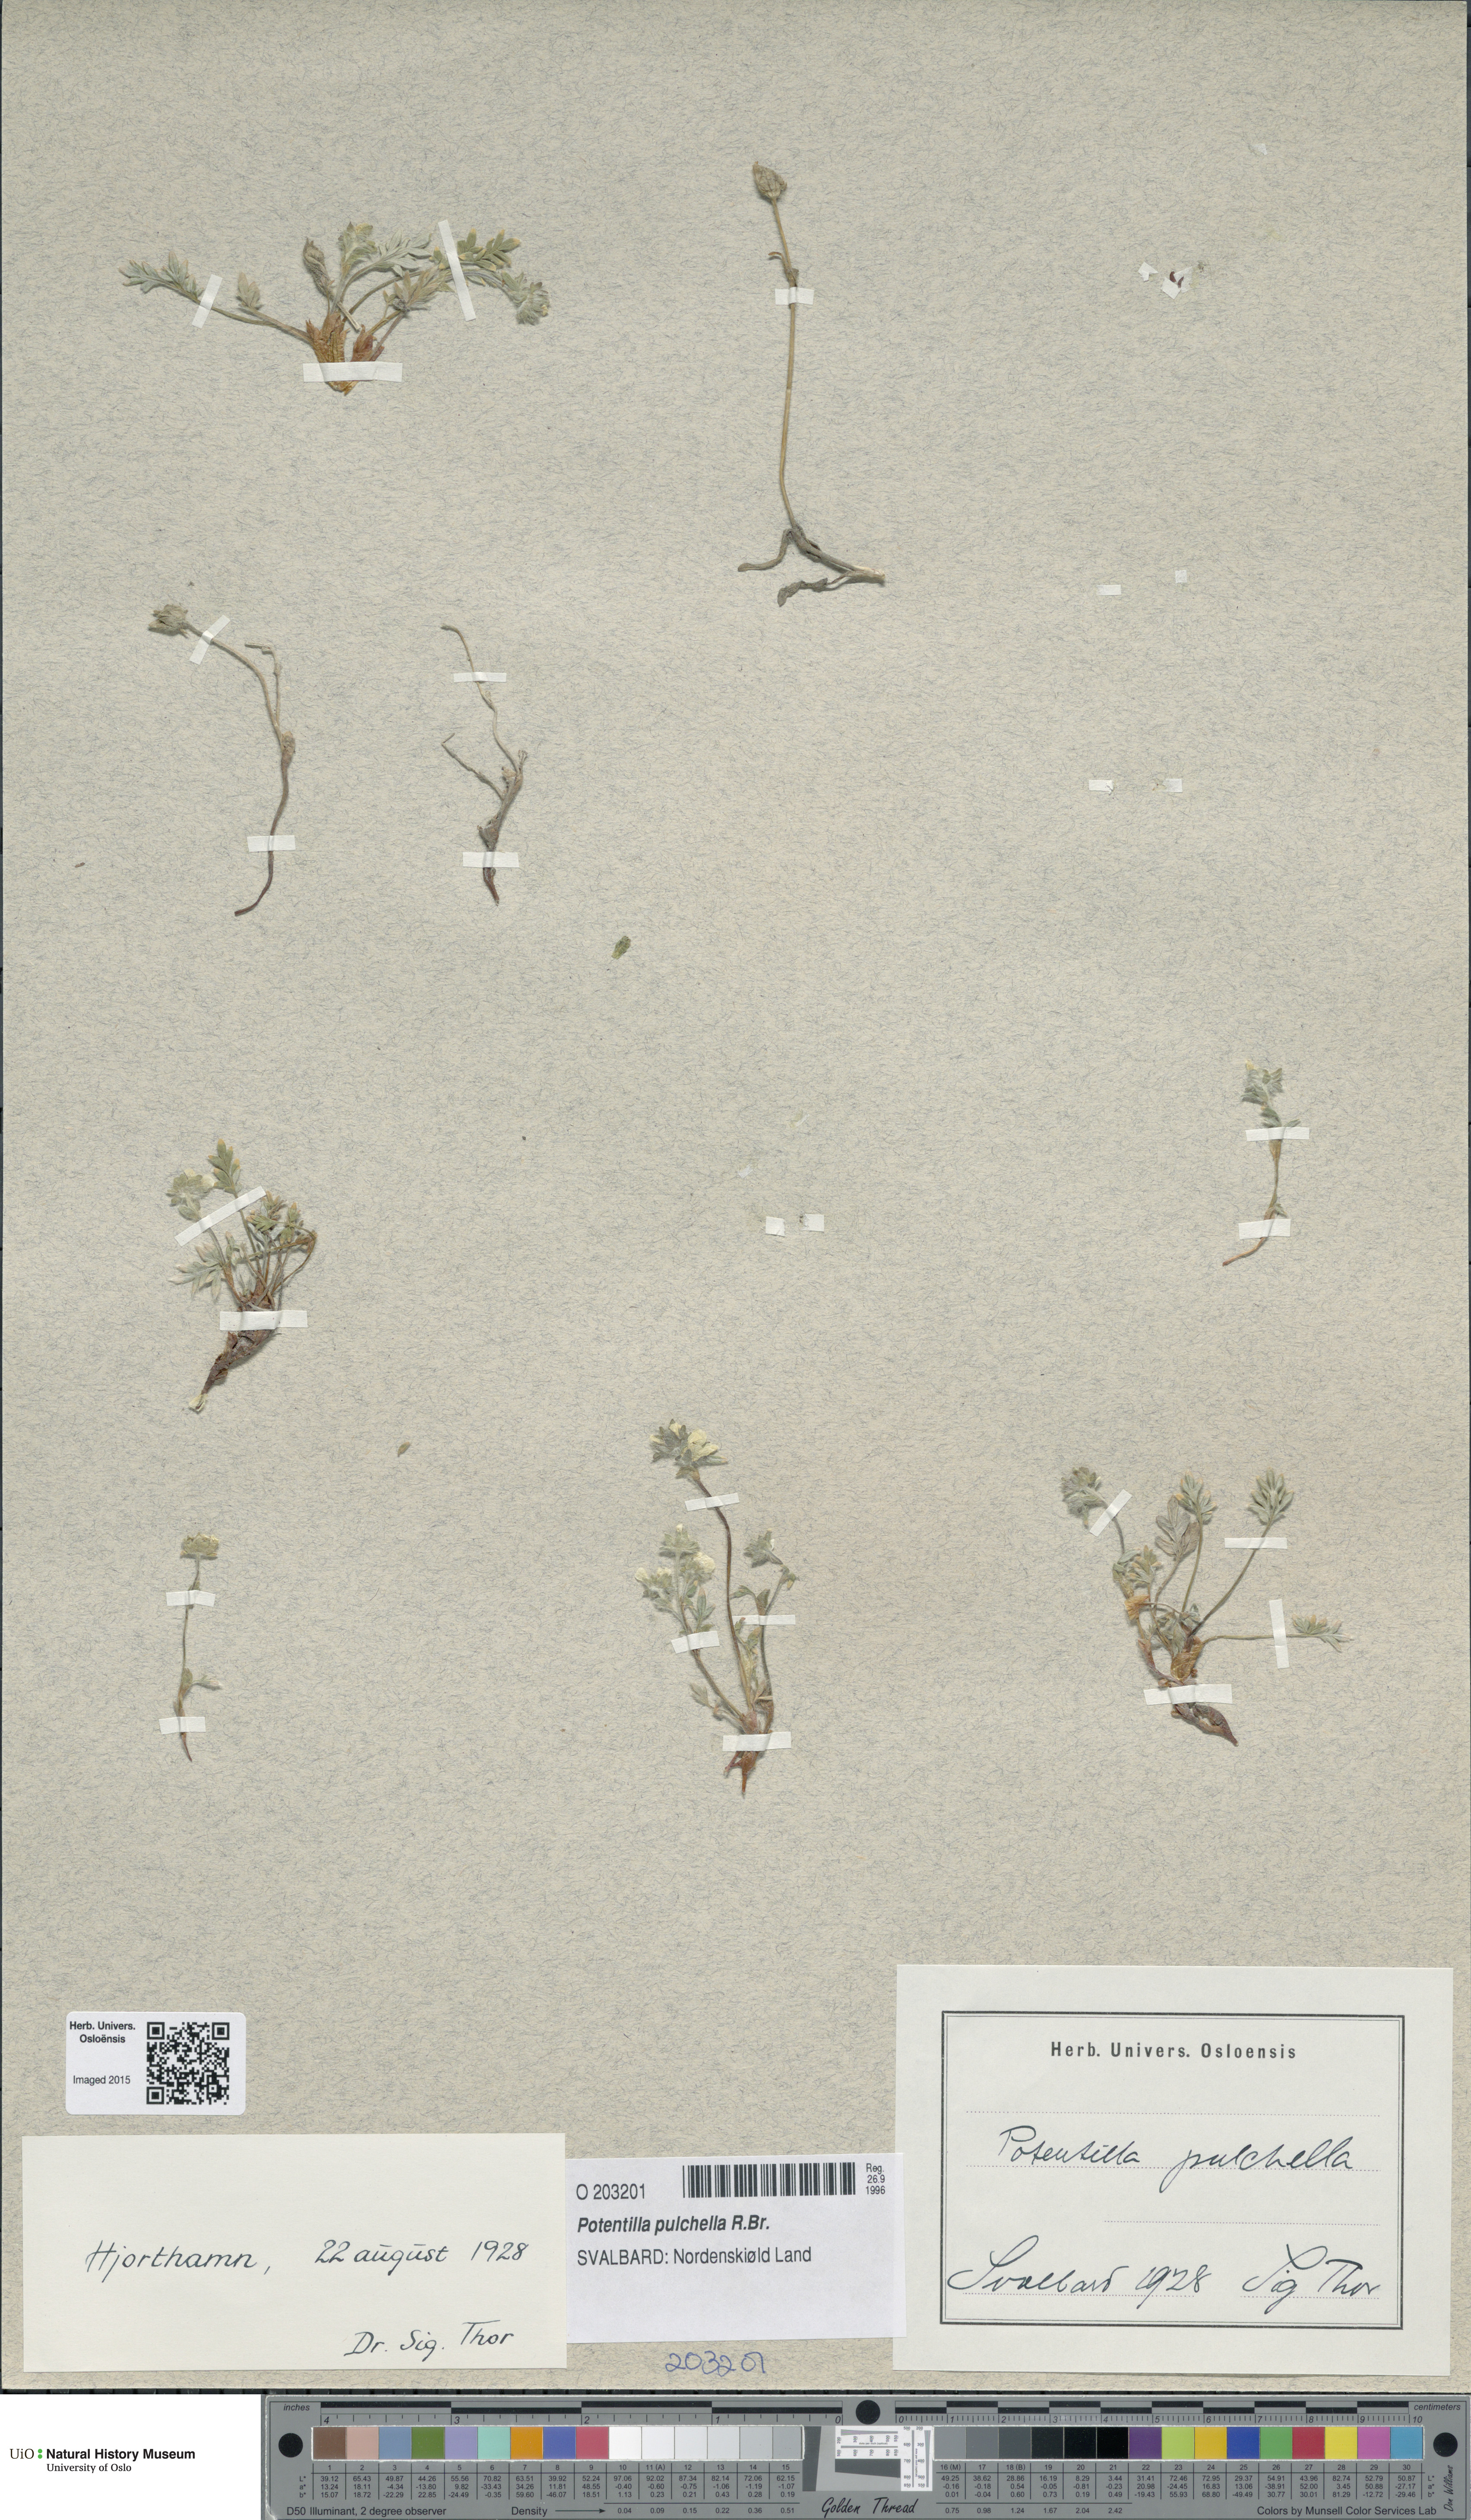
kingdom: Plantae
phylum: Tracheophyta
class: Magnoliopsida
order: Rosales
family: Rosaceae
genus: Potentilla
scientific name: Potentilla pulchella
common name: Pretty cinquefoil
